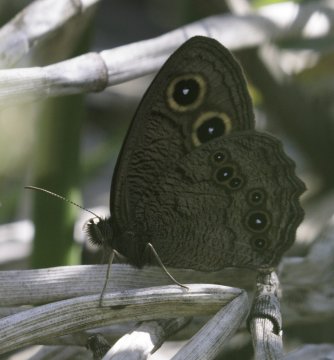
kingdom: Animalia
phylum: Arthropoda
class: Insecta
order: Lepidoptera
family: Nymphalidae
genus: Cercyonis
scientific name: Cercyonis pegala
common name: Common Wood-Nymph
